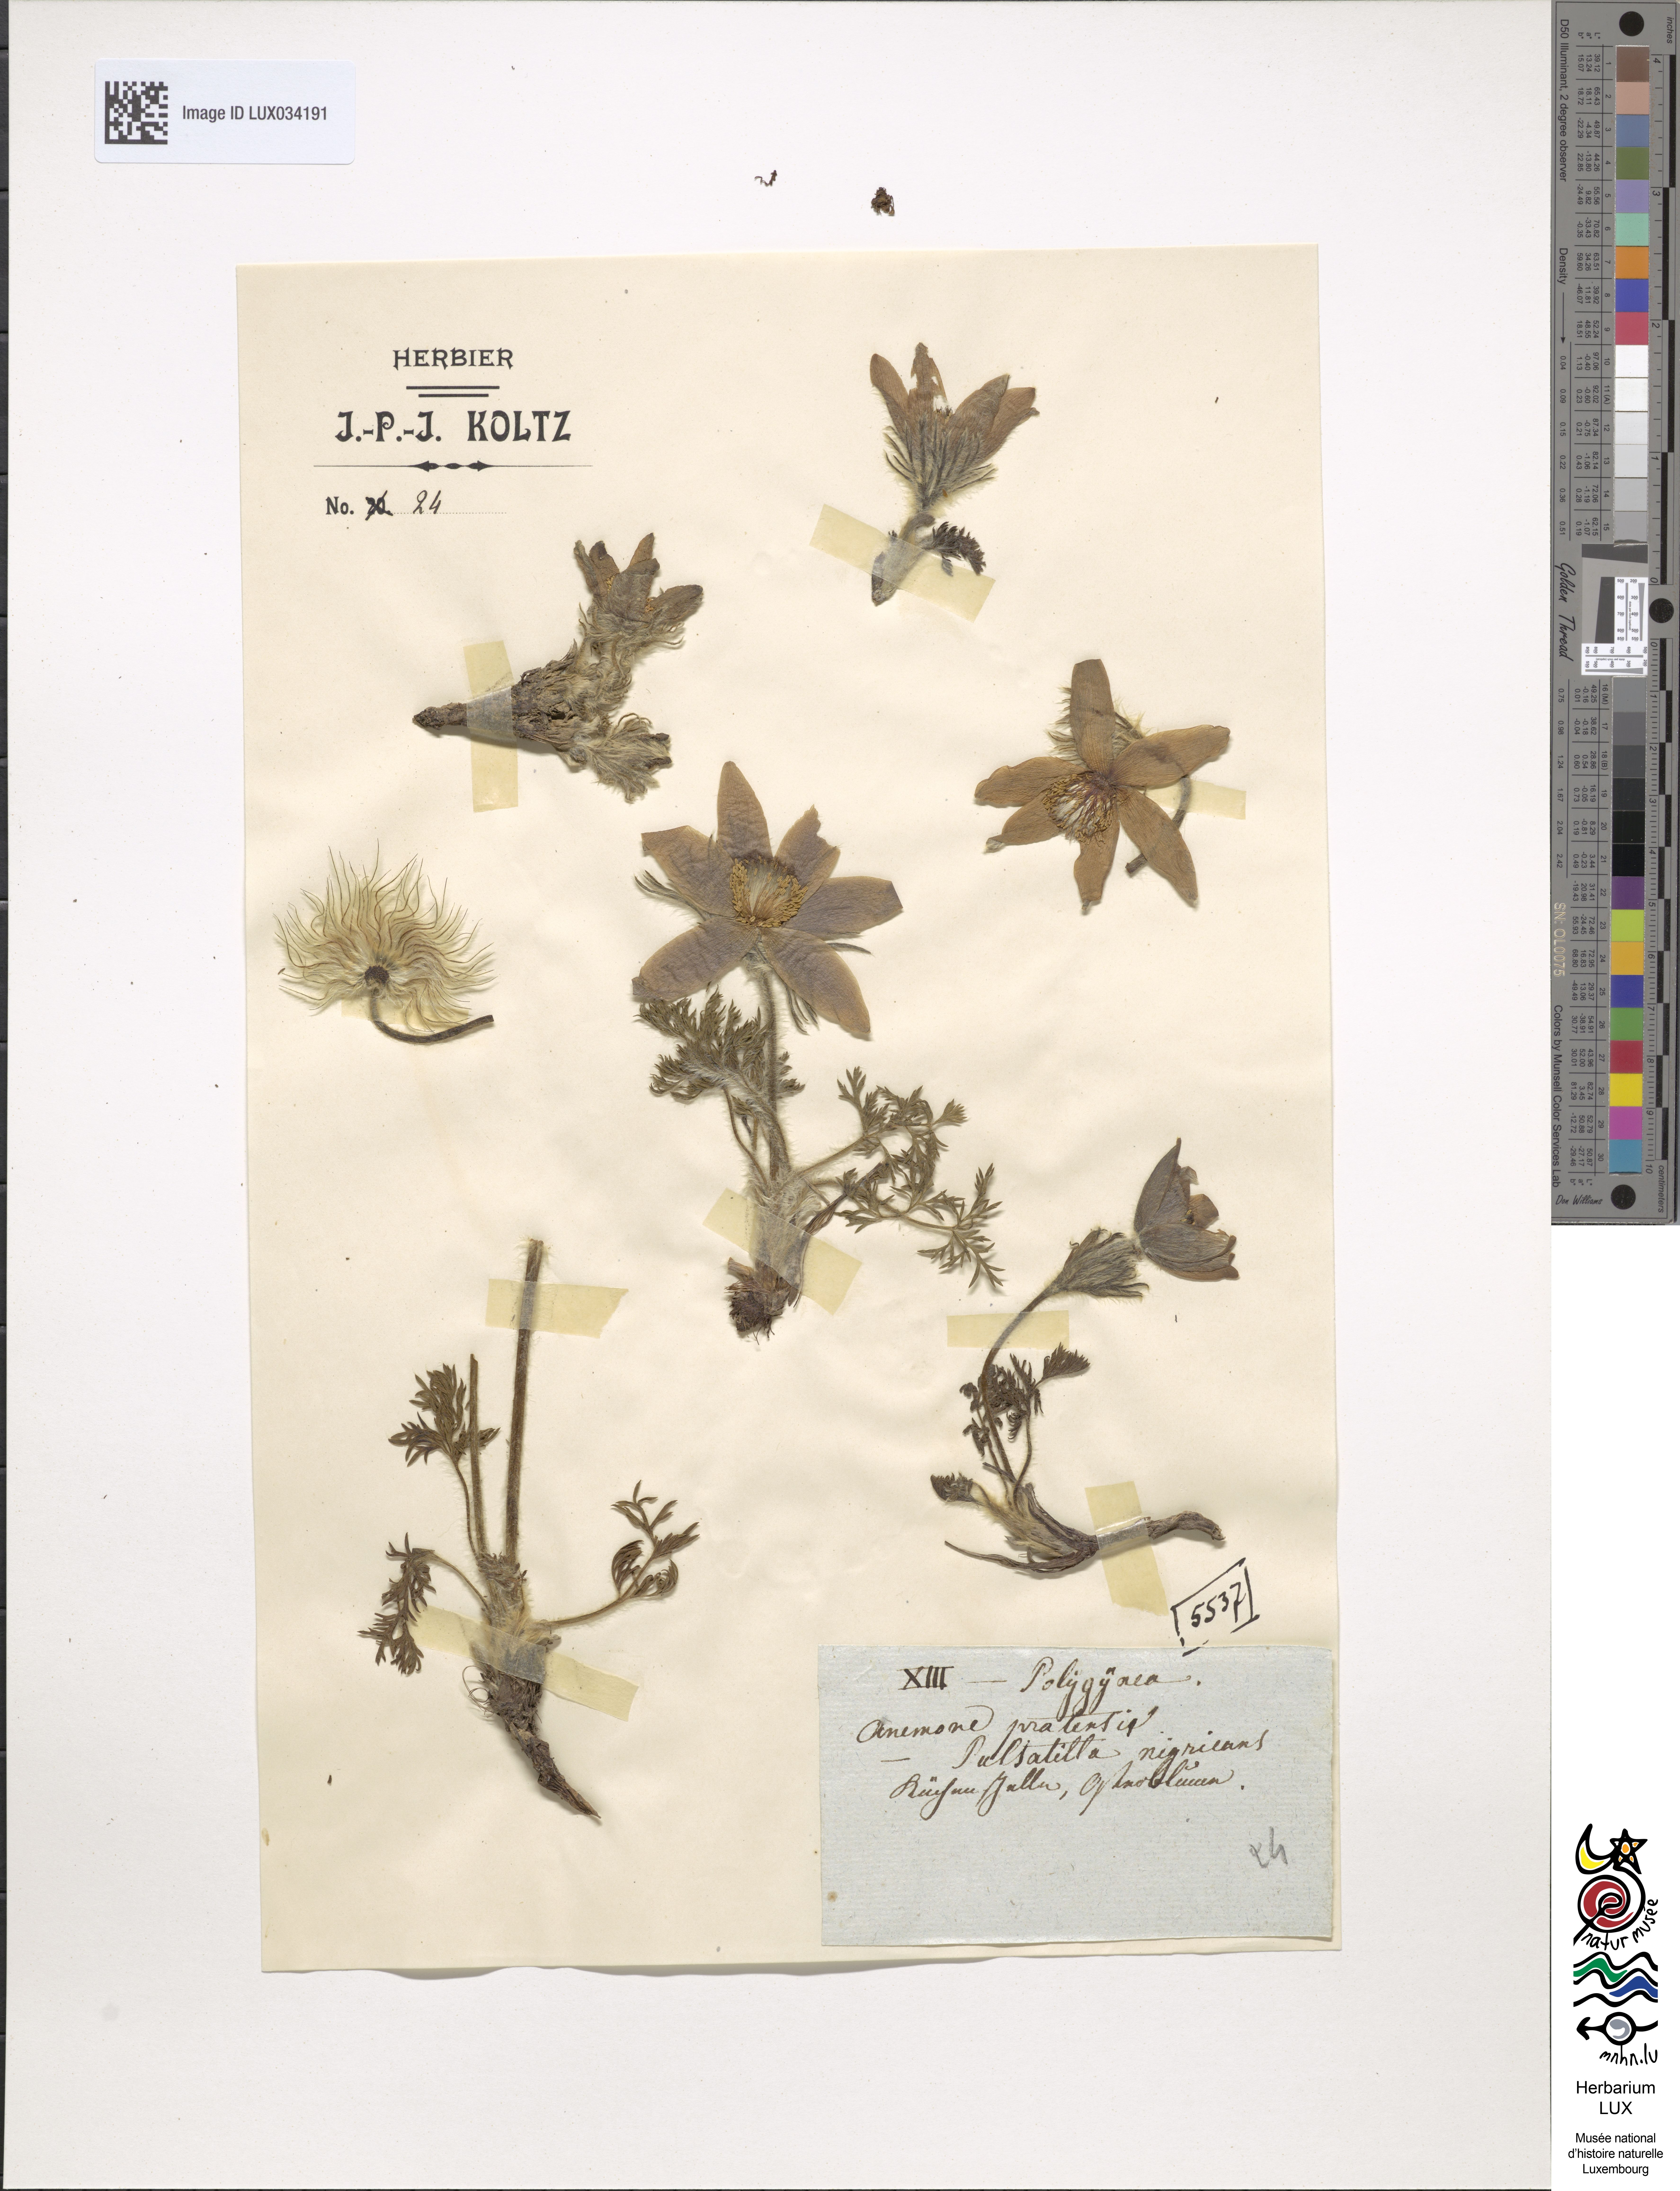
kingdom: Plantae
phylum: Tracheophyta
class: Magnoliopsida
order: Ranunculales
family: Ranunculaceae
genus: Pulsatilla
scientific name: Pulsatilla vulgaris
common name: Pasqueflower
